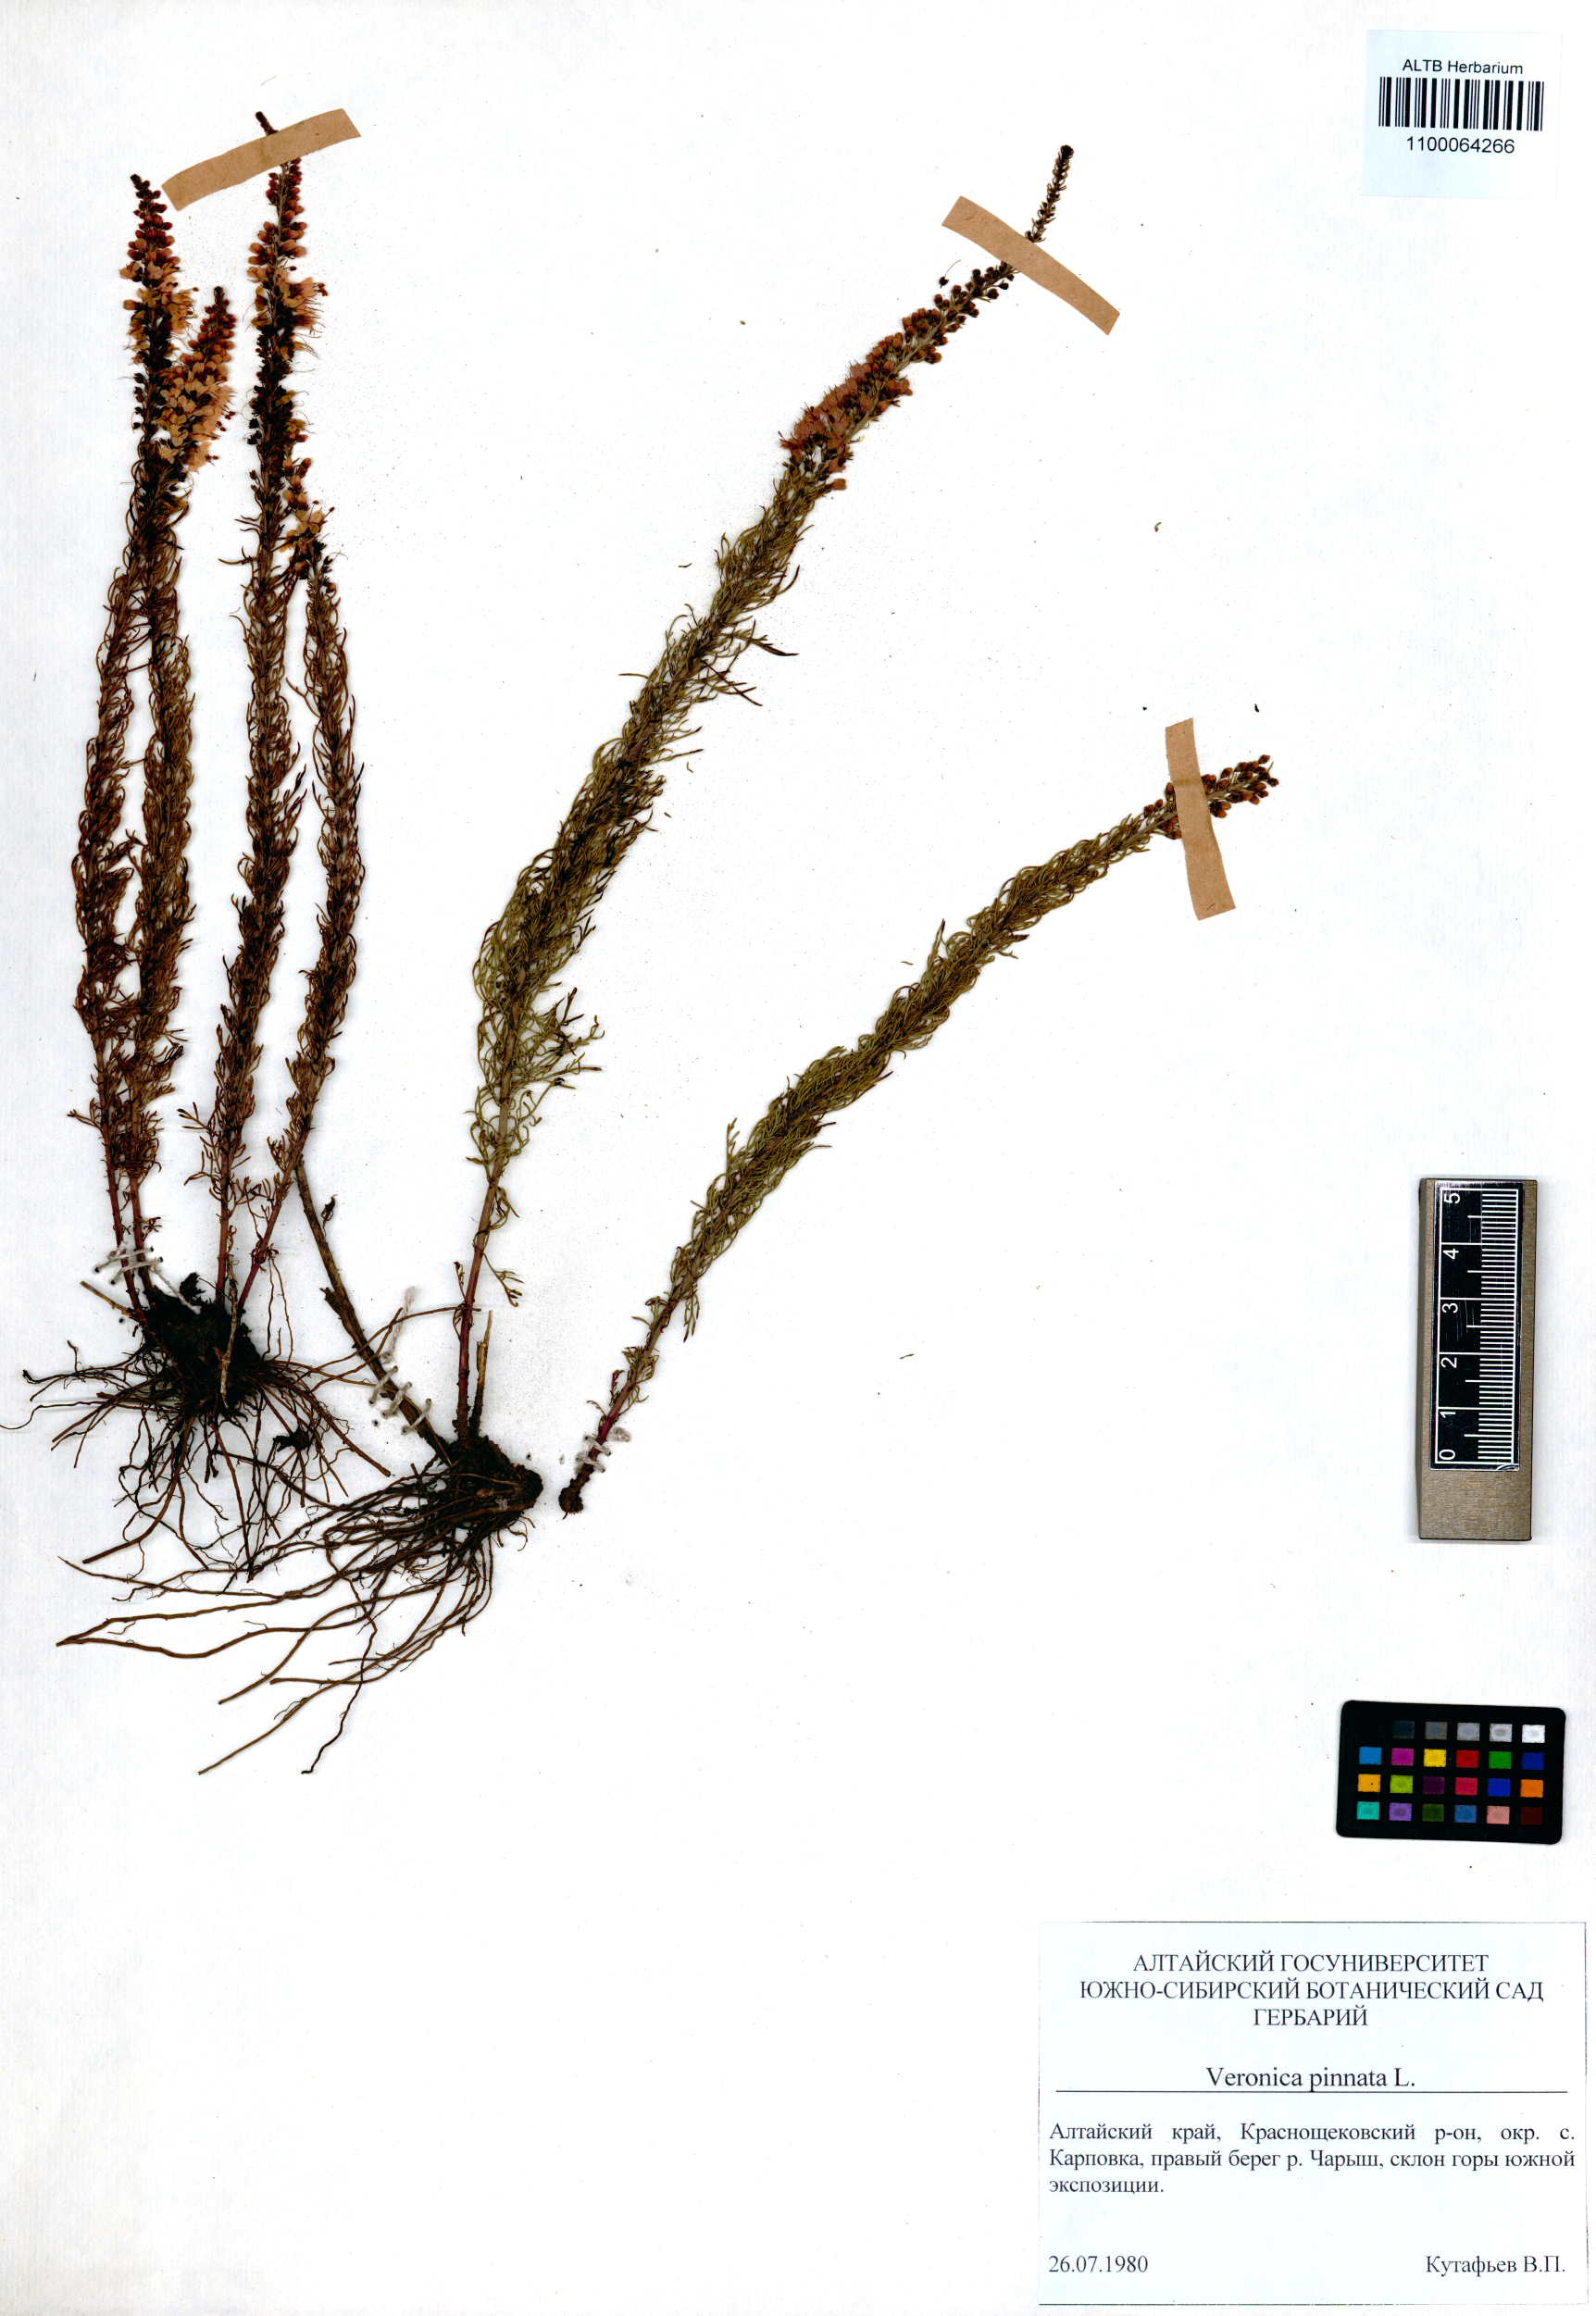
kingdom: Plantae
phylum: Tracheophyta
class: Magnoliopsida
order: Lamiales
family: Plantaginaceae
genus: Veronica
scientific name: Veronica pinnata
